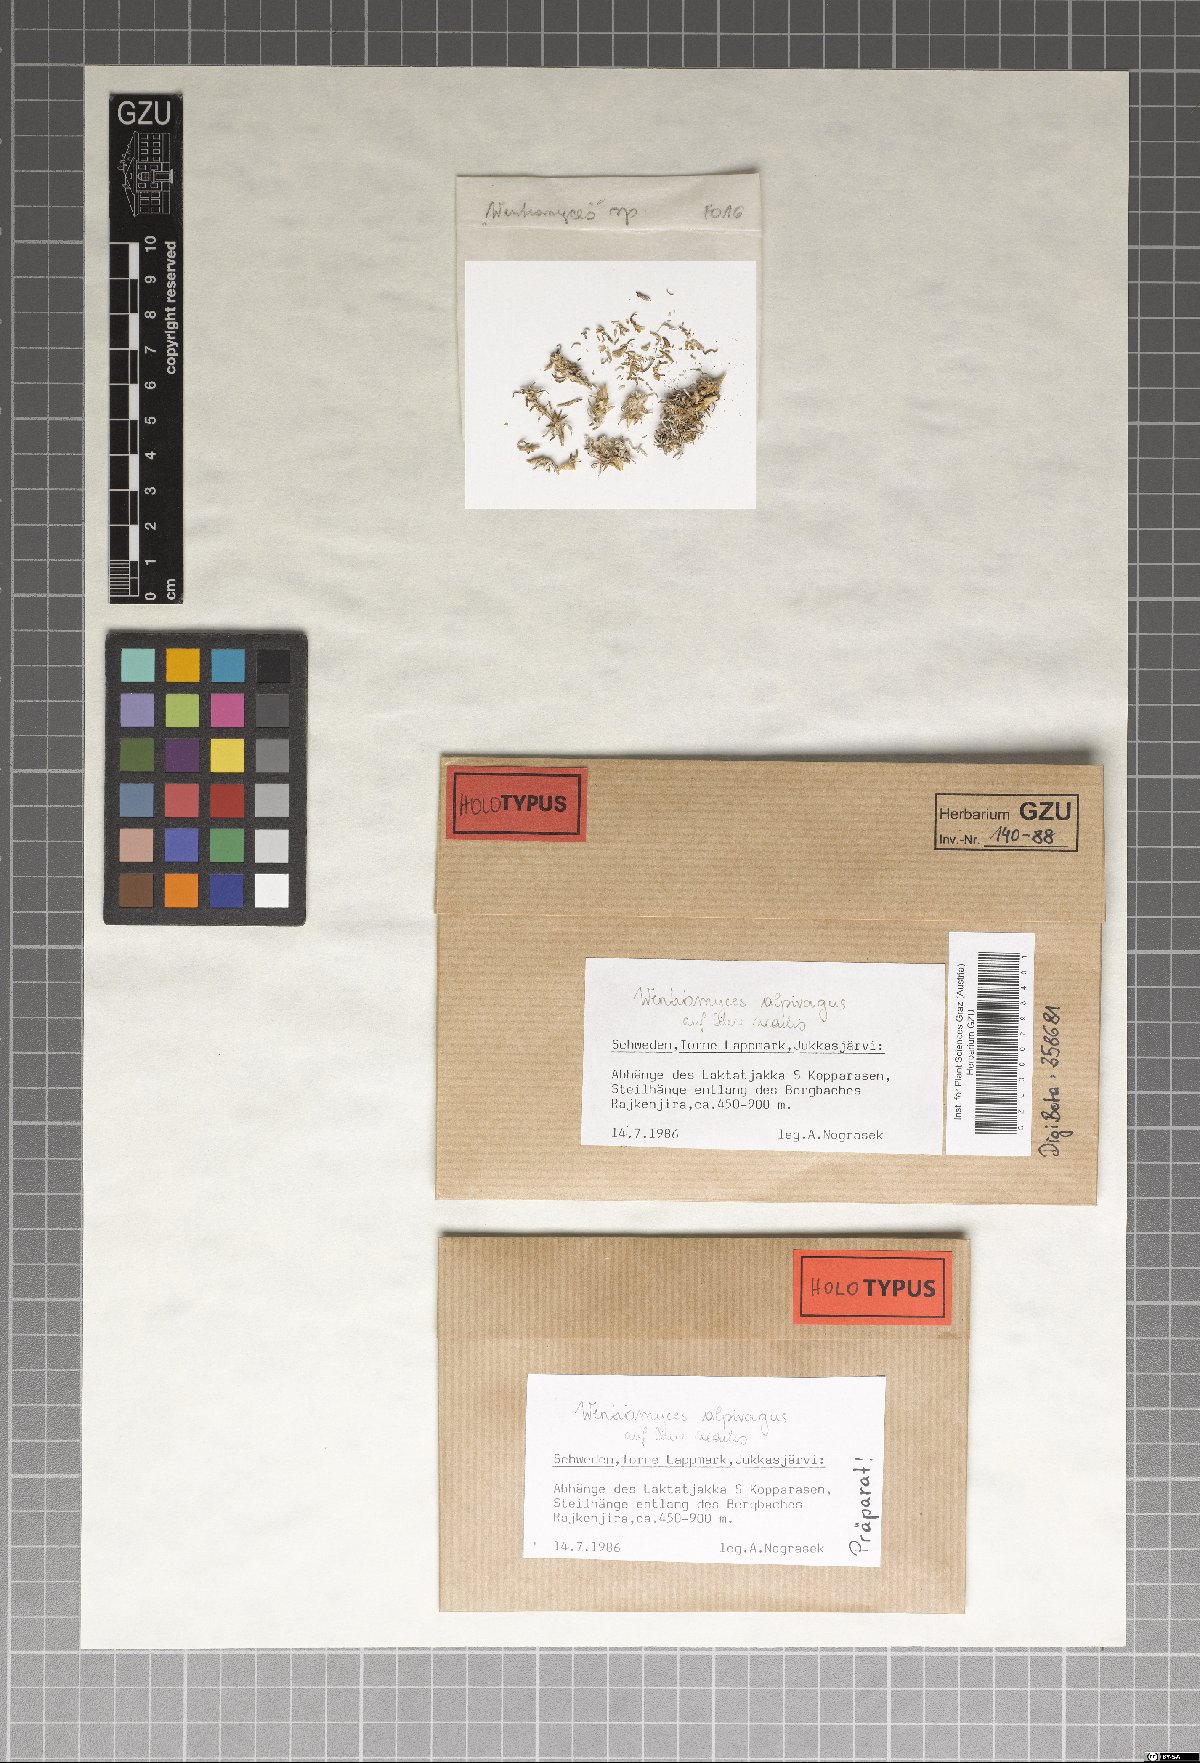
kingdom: Fungi
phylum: Ascomycota
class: Dothideomycetes
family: Pseudoperisporiaceae
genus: Wentiomyces
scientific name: Wentiomyces alpivagus
